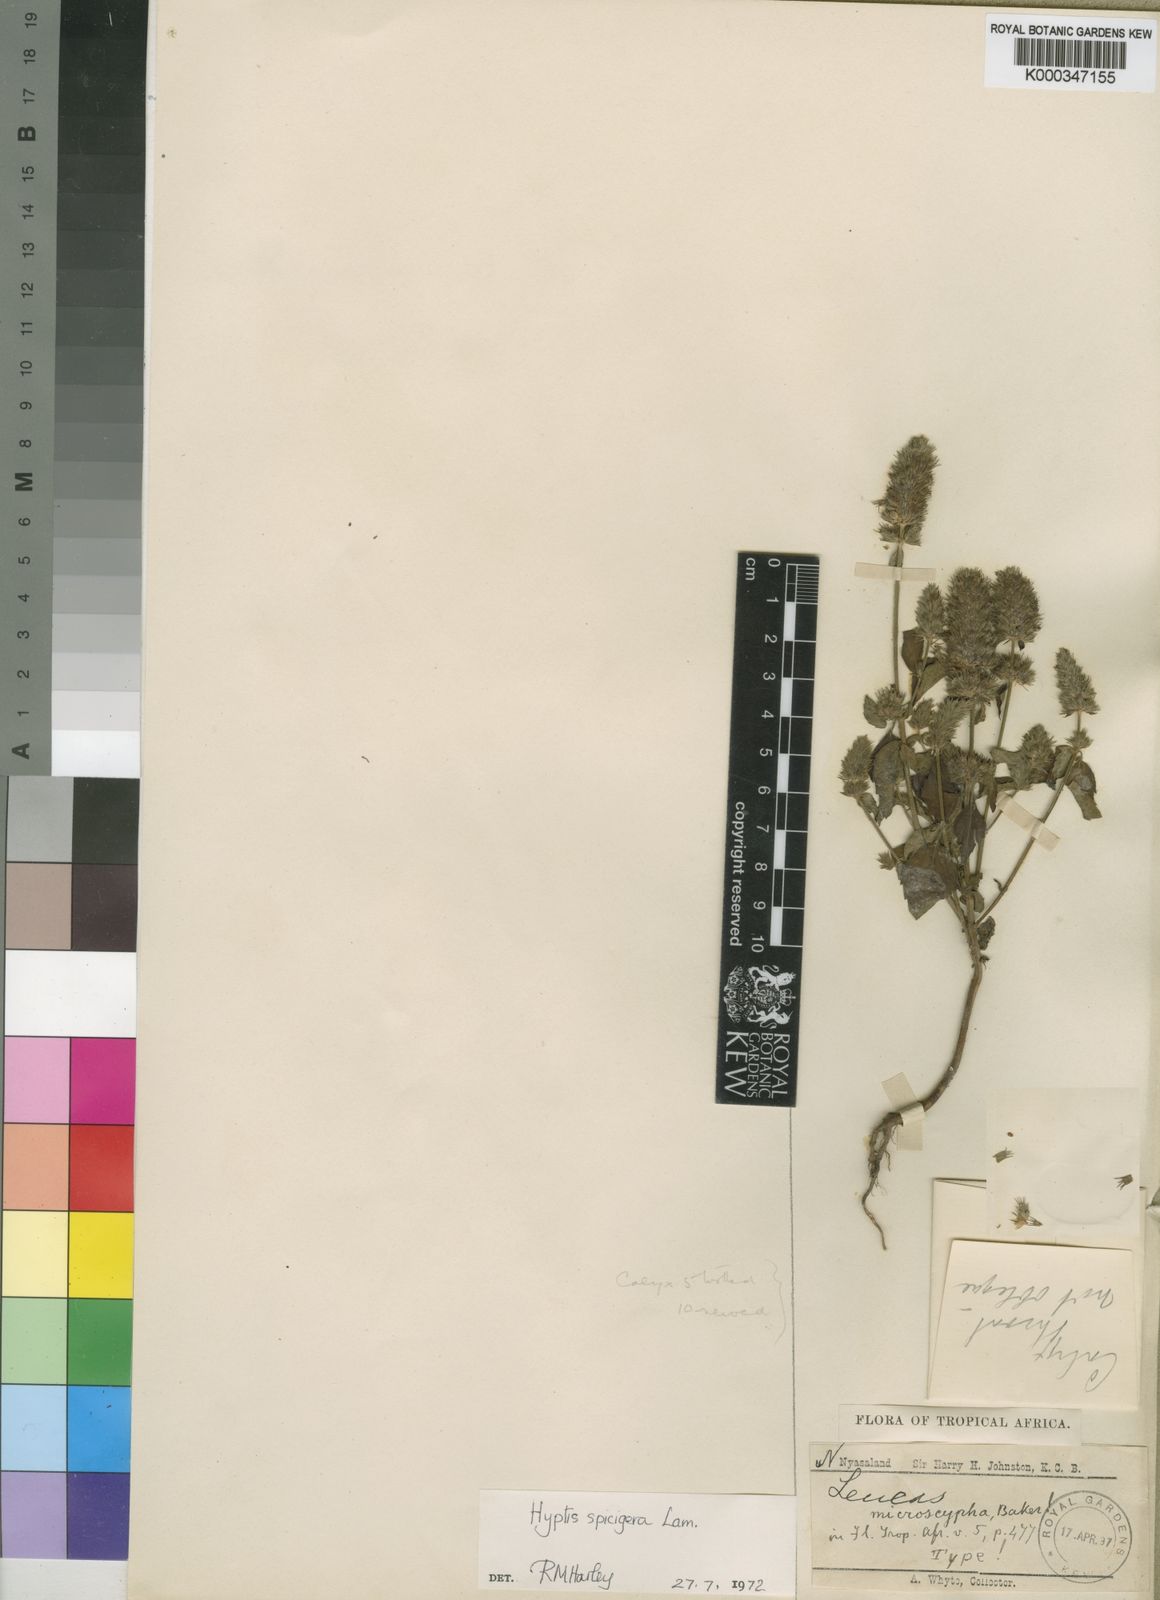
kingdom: Plantae
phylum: Tracheophyta
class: Magnoliopsida
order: Lamiales
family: Lamiaceae
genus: Cantinoa
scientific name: Cantinoa americana
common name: Black-sesame
